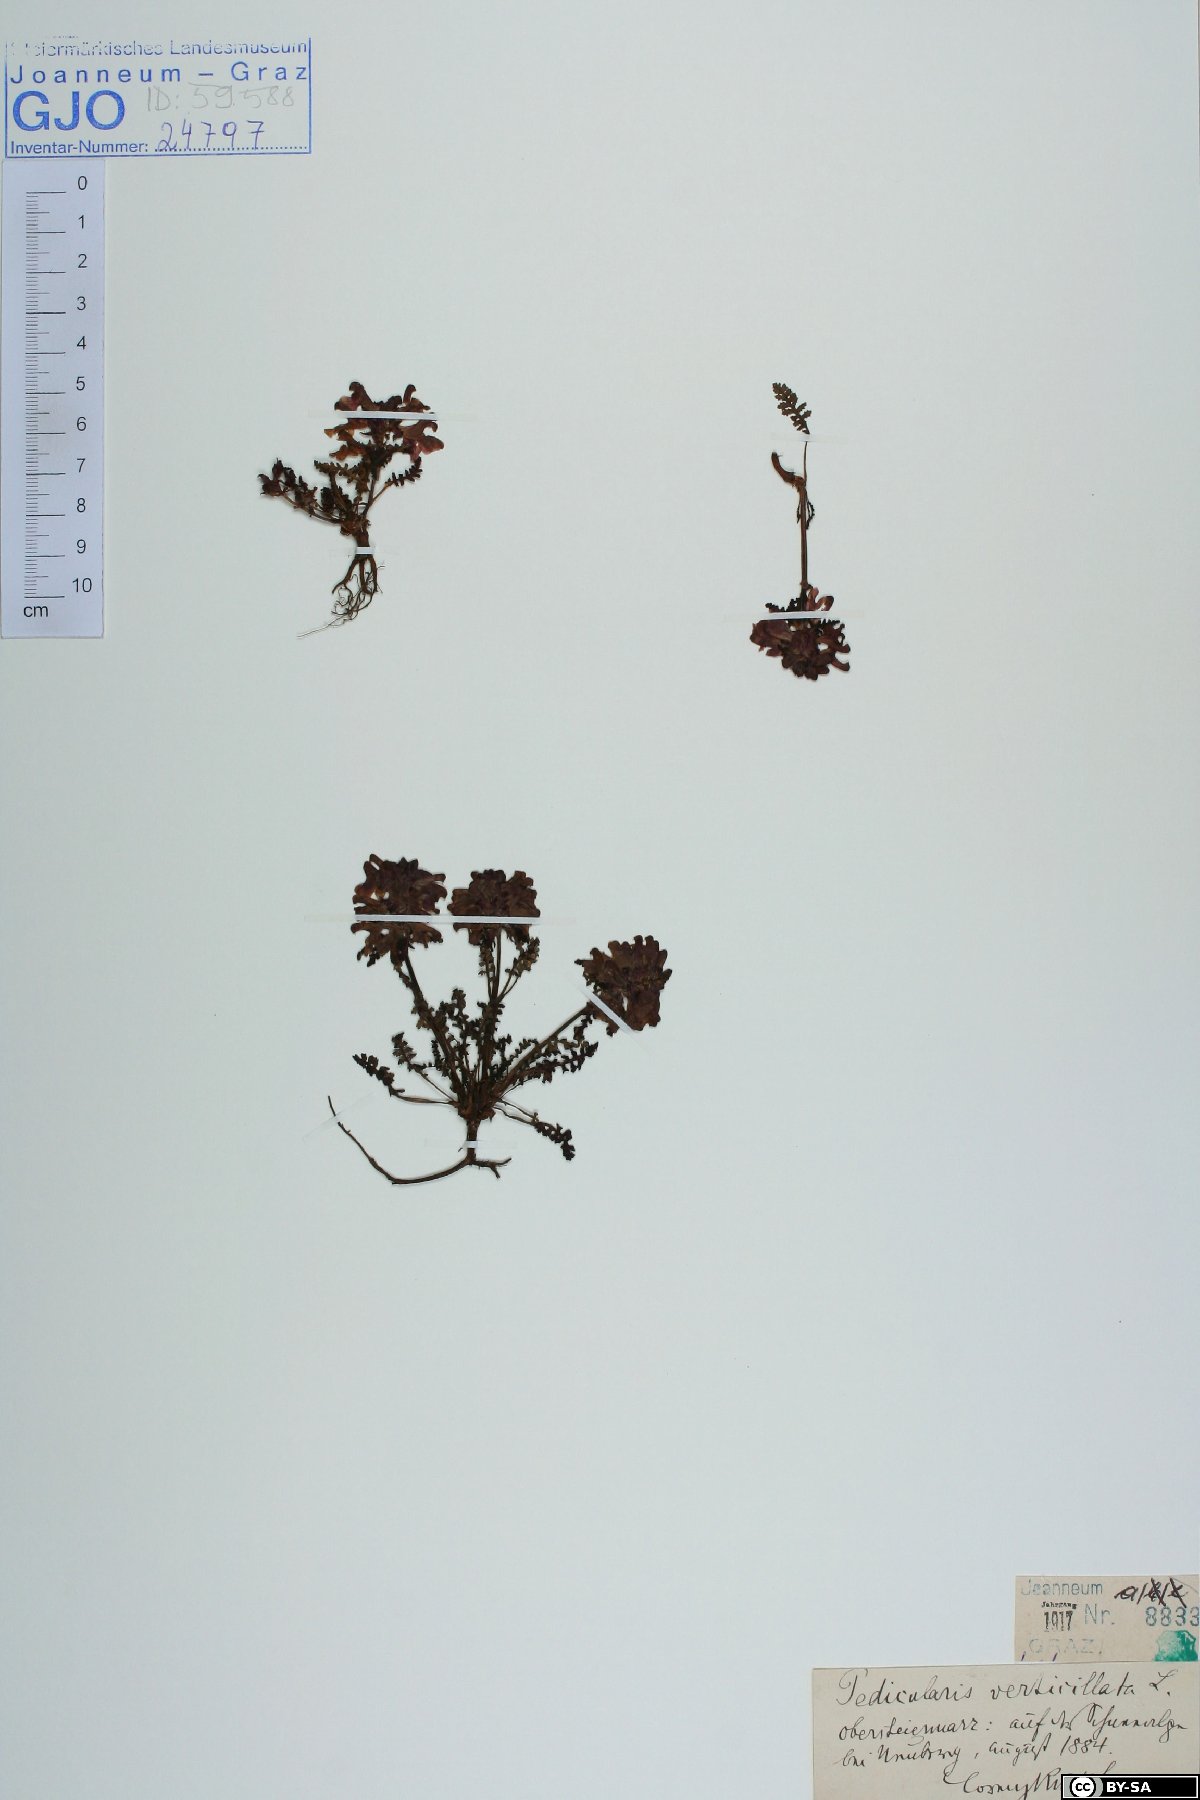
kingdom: Plantae
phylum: Tracheophyta
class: Magnoliopsida
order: Lamiales
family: Orobanchaceae
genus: Pedicularis
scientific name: Pedicularis verticillata
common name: Whorled lousewort
